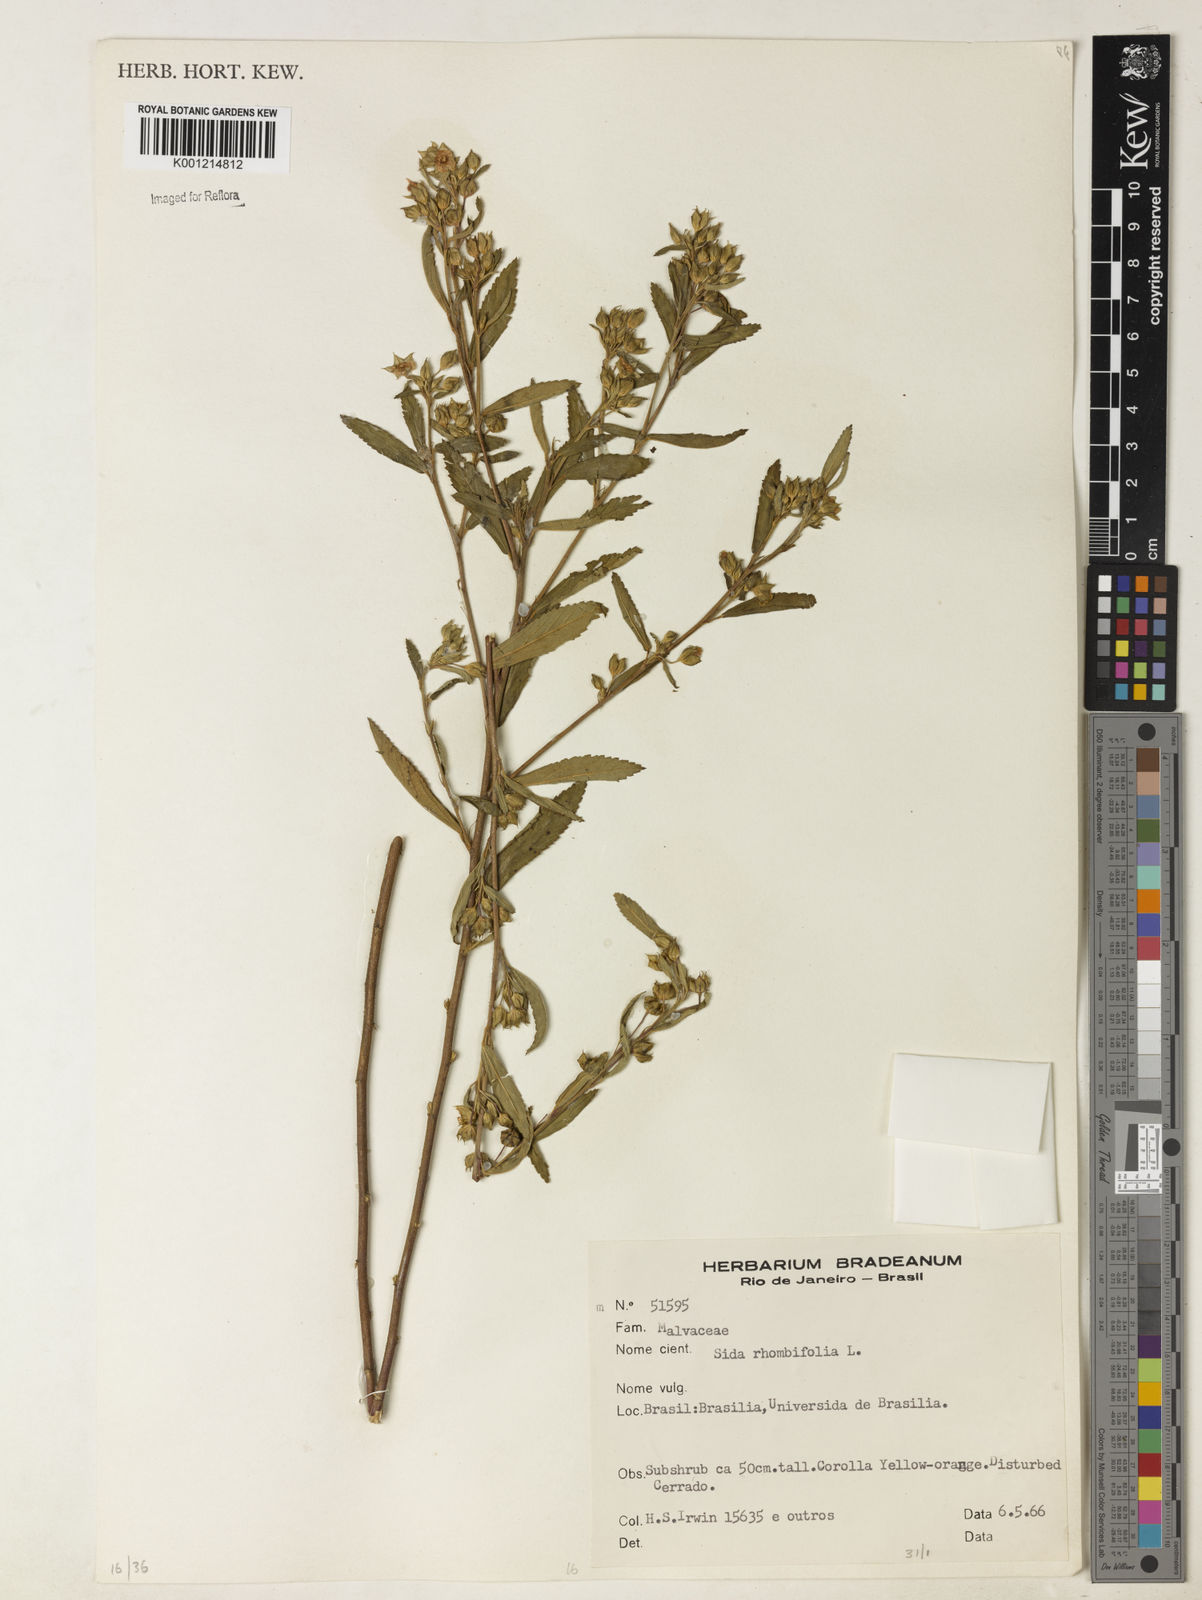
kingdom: Plantae
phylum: Tracheophyta
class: Magnoliopsida
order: Malvales
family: Malvaceae
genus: Sida
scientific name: Sida rhombifolia
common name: Queensland-hemp
